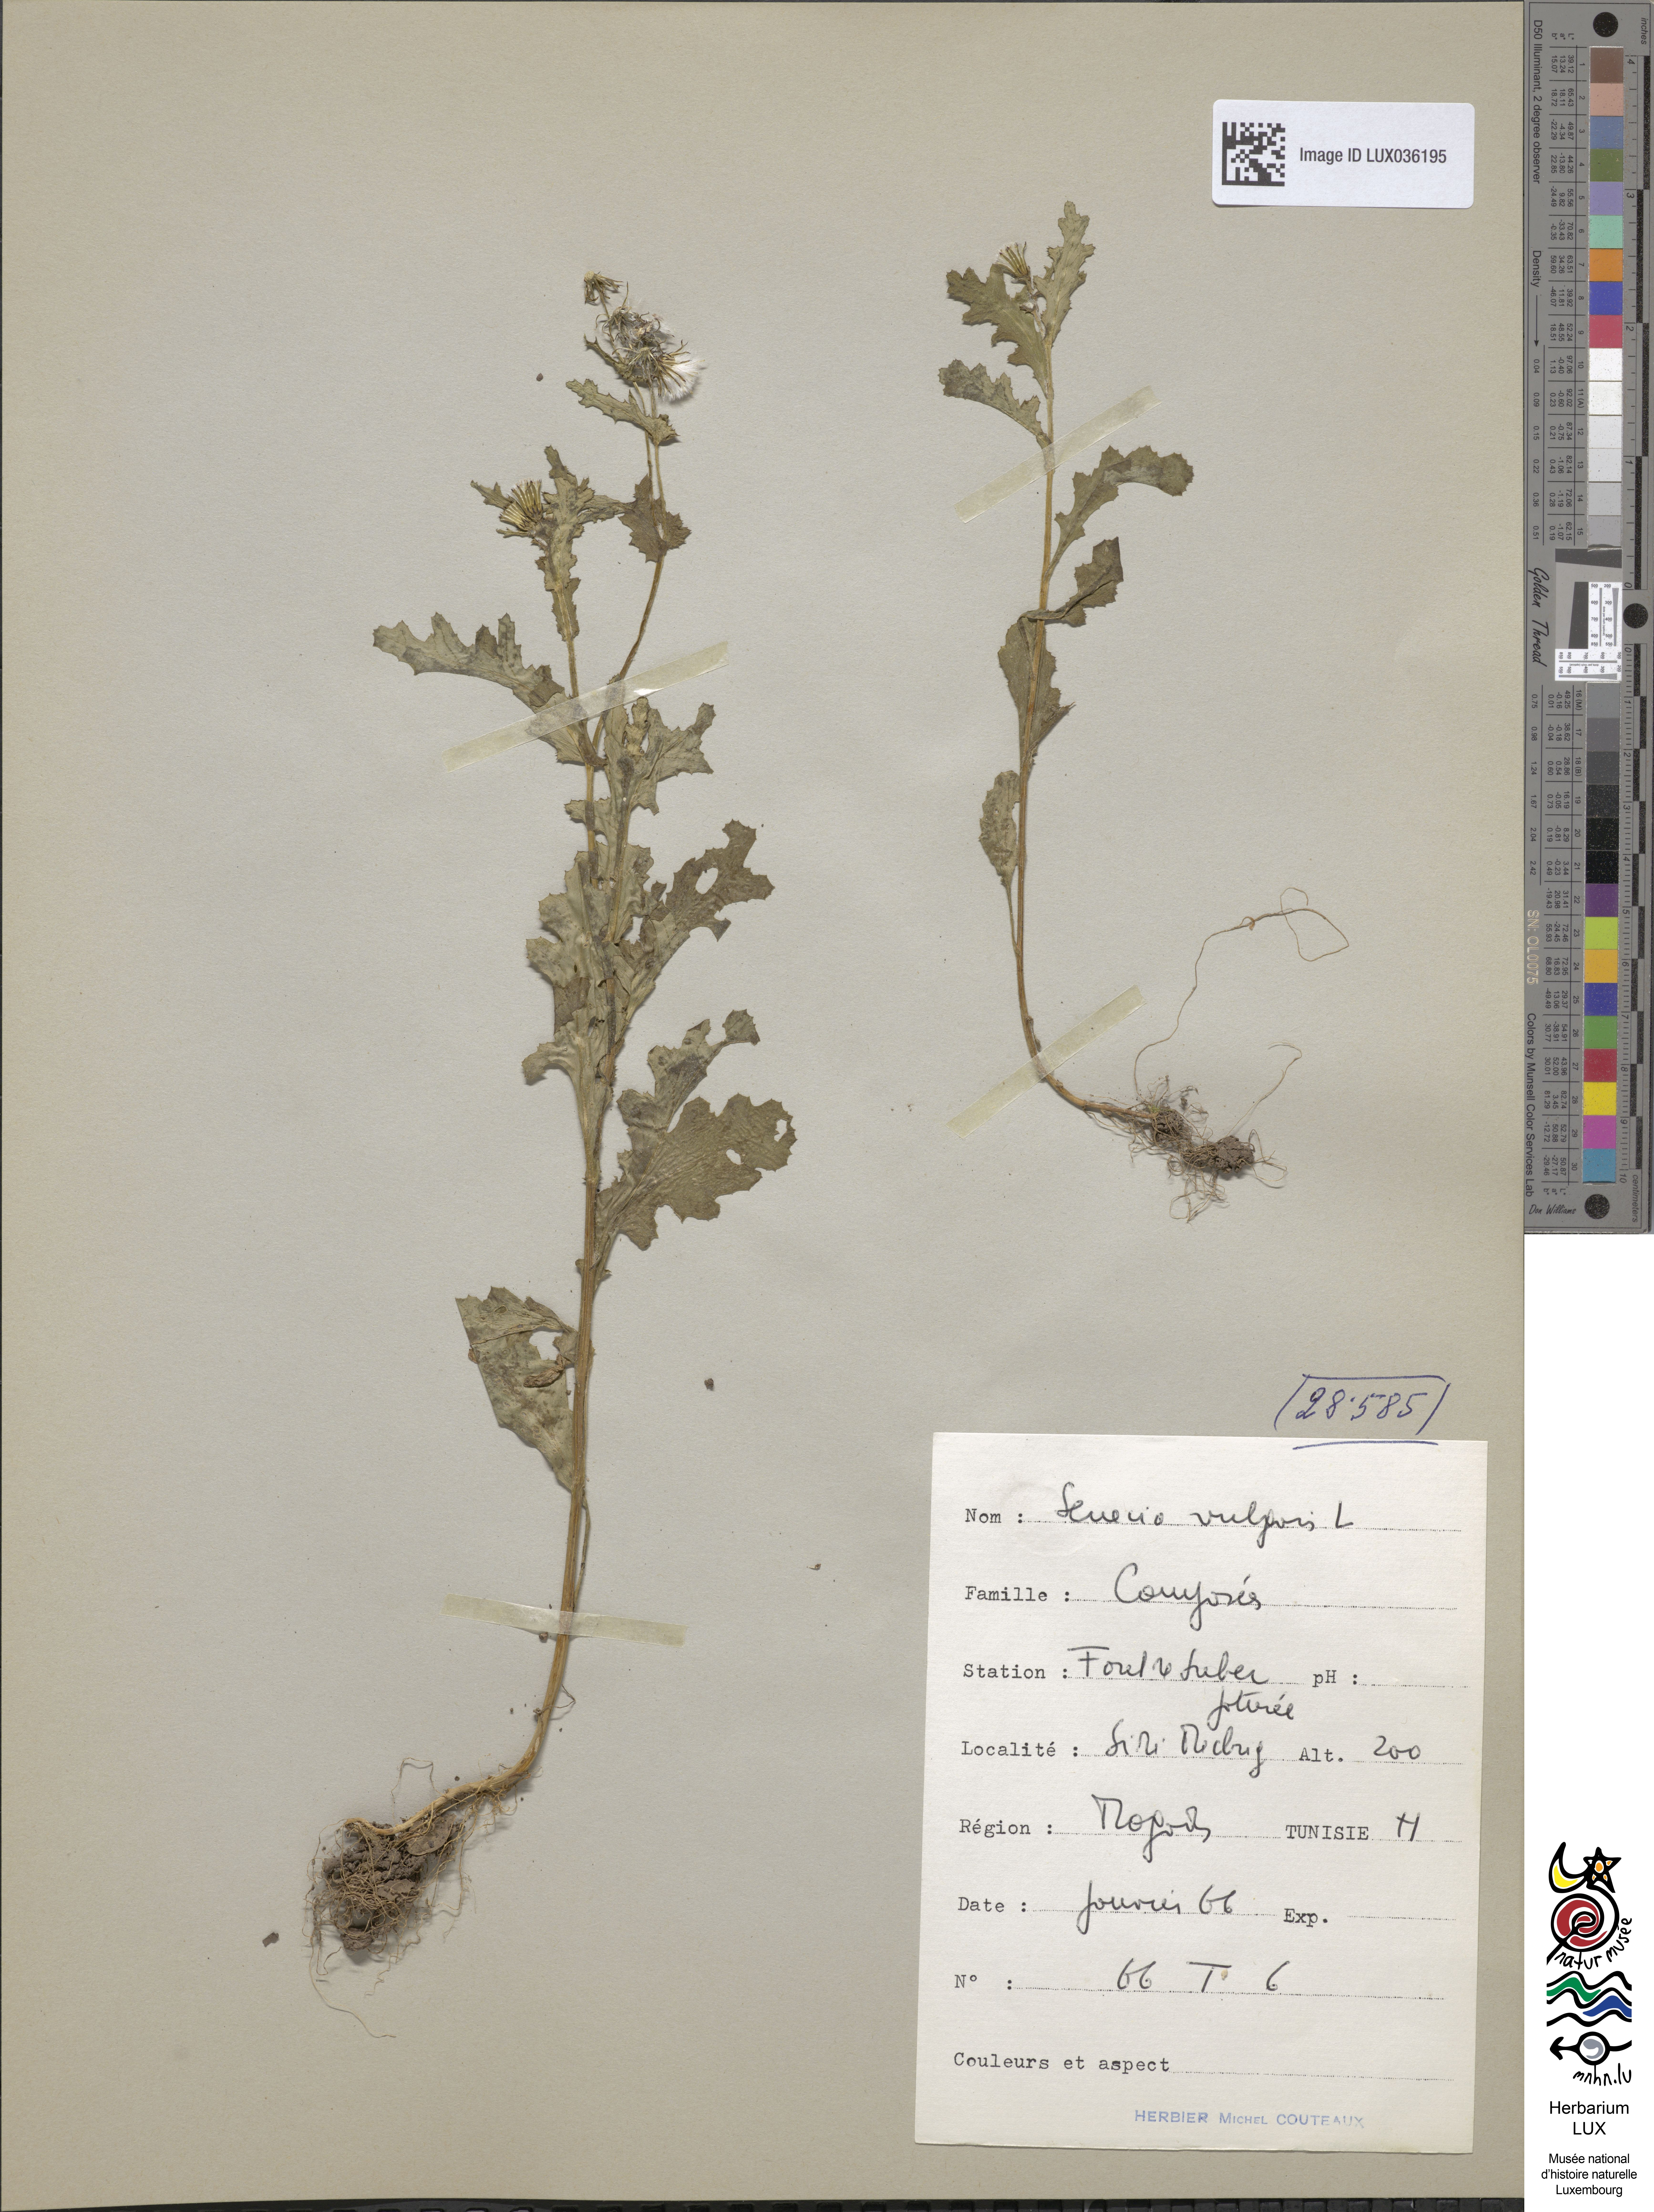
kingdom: Plantae
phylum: Tracheophyta
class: Magnoliopsida
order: Asterales
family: Asteraceae
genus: Senecio
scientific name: Senecio vulgaris
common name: Old-man-in-the-spring
